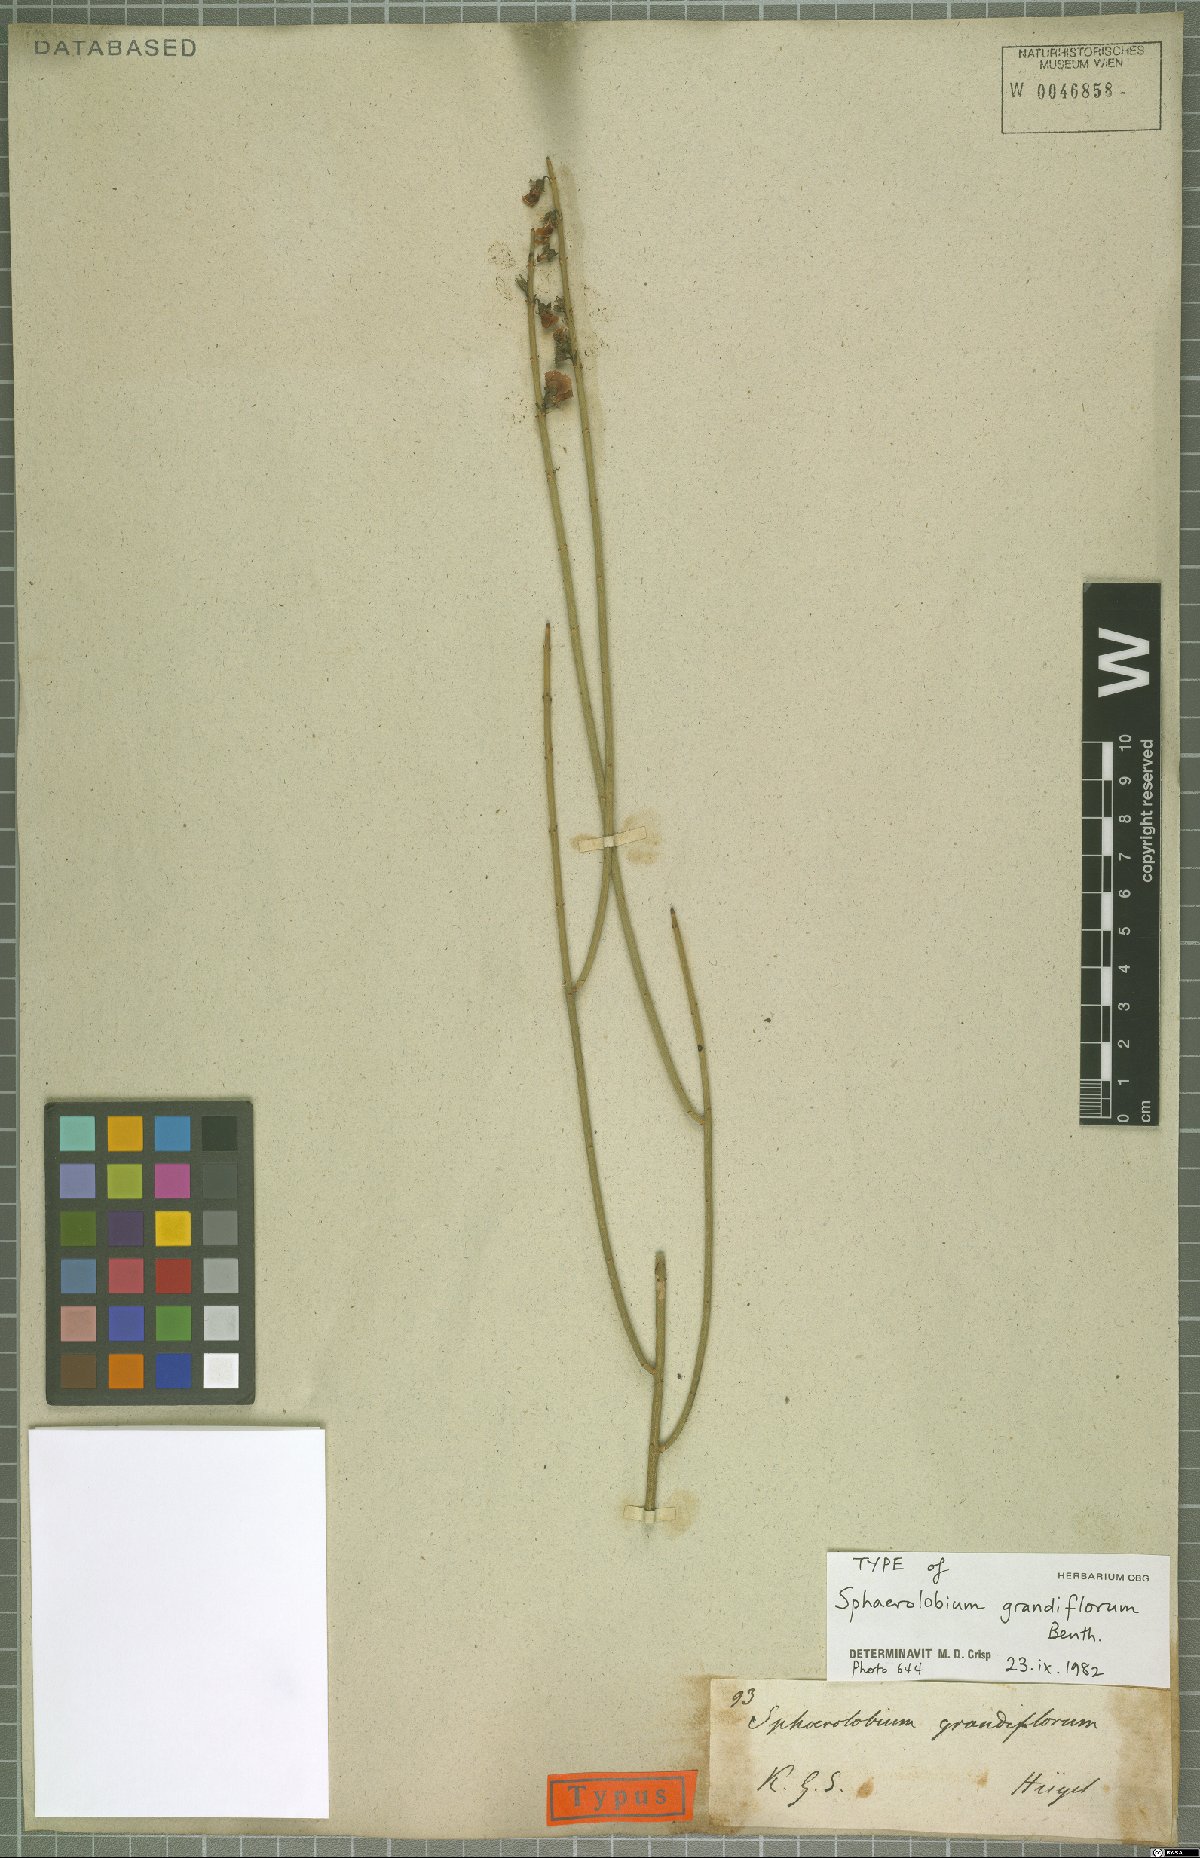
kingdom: Plantae
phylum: Tracheophyta
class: Magnoliopsida
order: Fabales
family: Fabaceae
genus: Sphaerolobium
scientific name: Sphaerolobium grandiflorum
